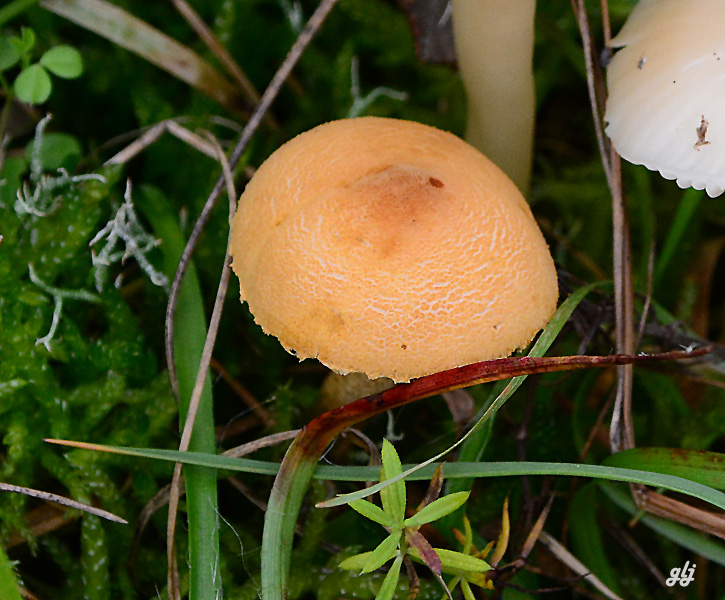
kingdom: Fungi
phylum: Basidiomycota
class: Agaricomycetes
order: Agaricales
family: Tricholomataceae
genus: Cystoderma
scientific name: Cystoderma amianthinum
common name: okkergul grynhat
